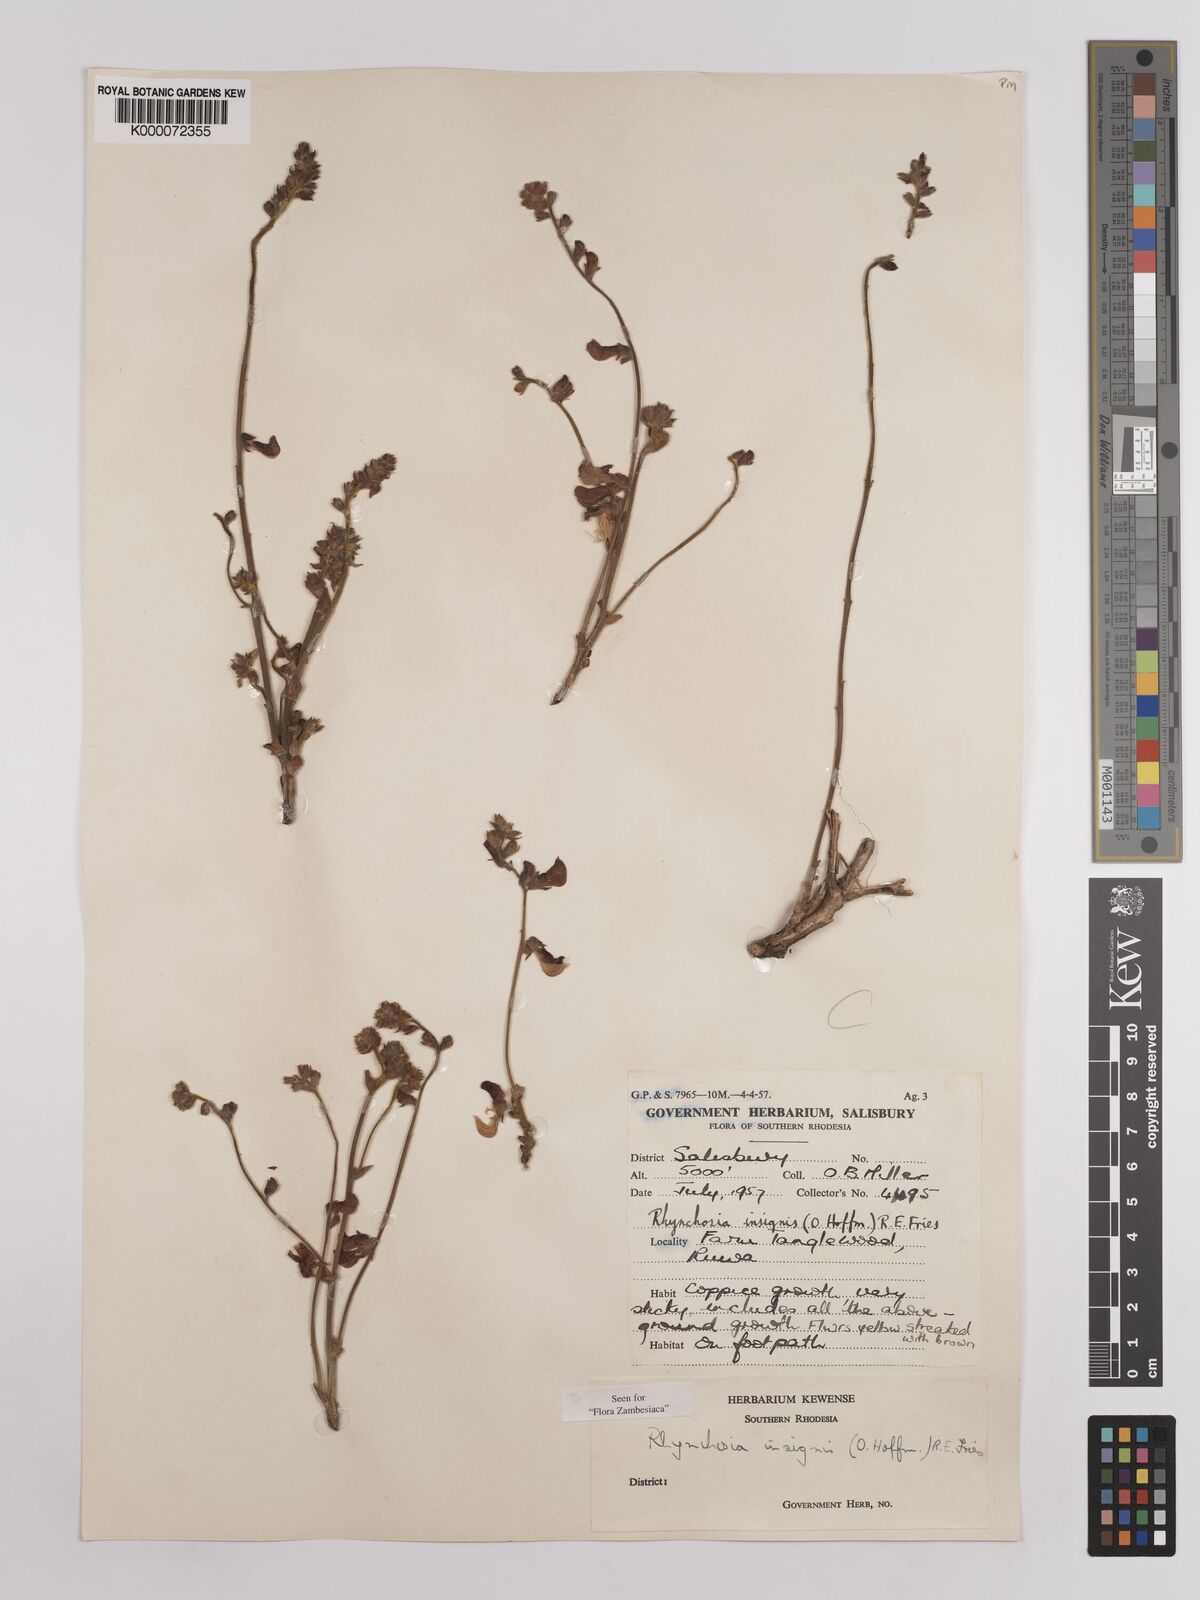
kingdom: Plantae
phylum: Tracheophyta
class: Magnoliopsida
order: Fabales
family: Fabaceae
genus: Rhynchosia
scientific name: Rhynchosia insignis
